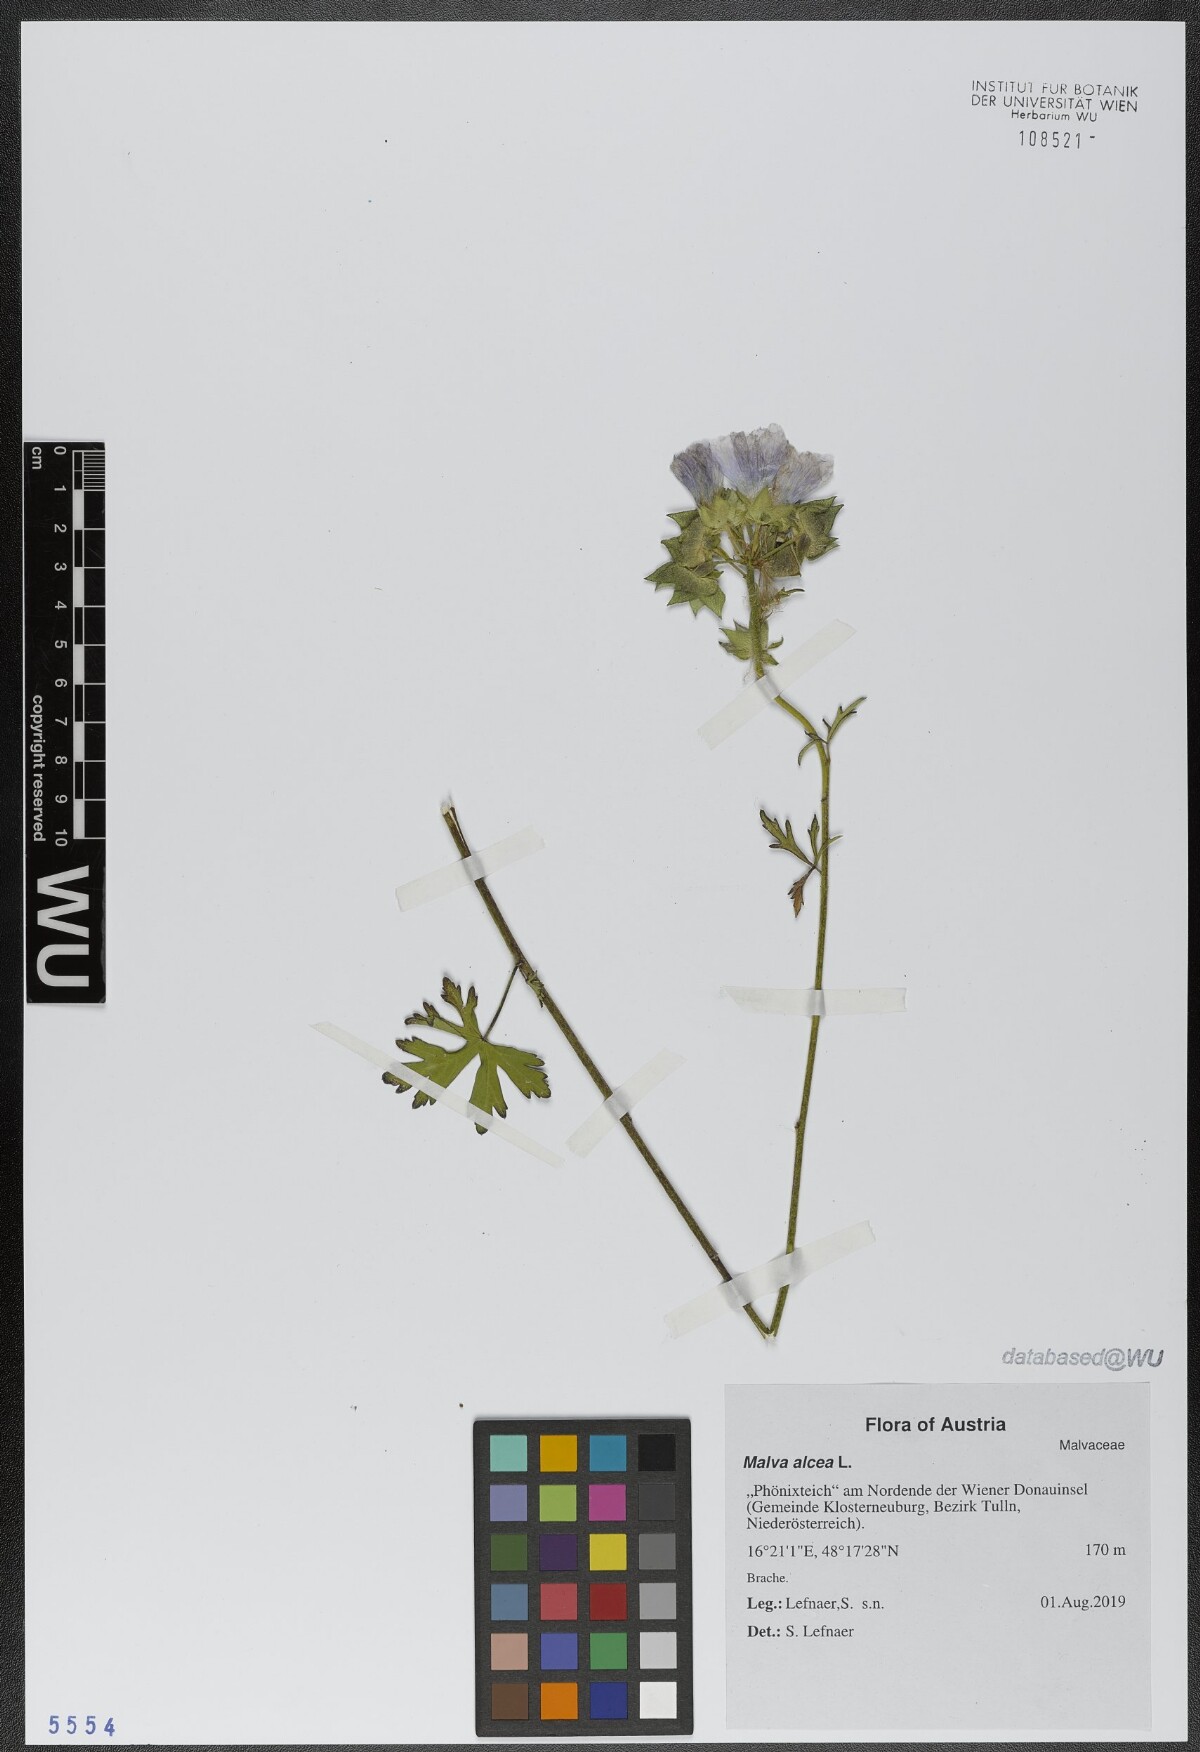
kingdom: Plantae
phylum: Tracheophyta
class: Magnoliopsida
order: Malvales
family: Malvaceae
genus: Malva
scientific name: Malva alcea
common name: Greater musk-mallow
